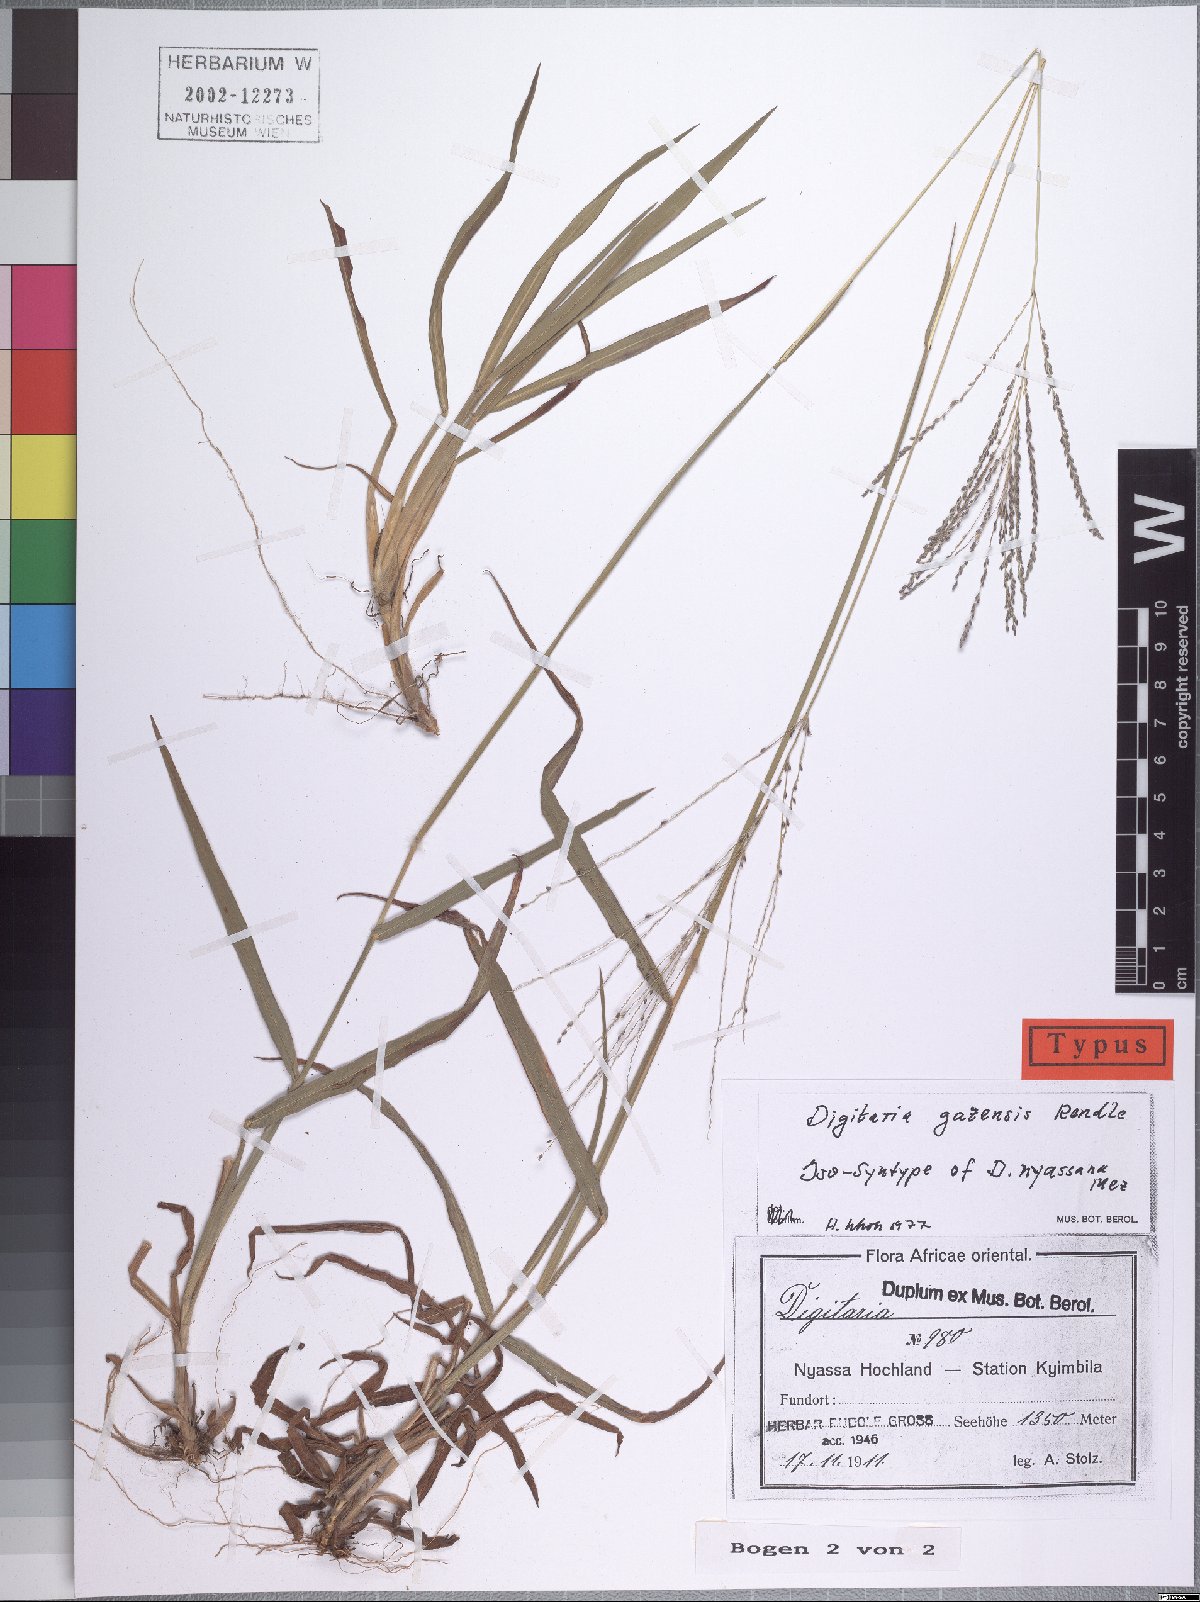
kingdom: Plantae
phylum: Tracheophyta
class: Liliopsida
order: Poales
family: Poaceae
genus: Digitaria
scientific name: Digitaria gazensis
